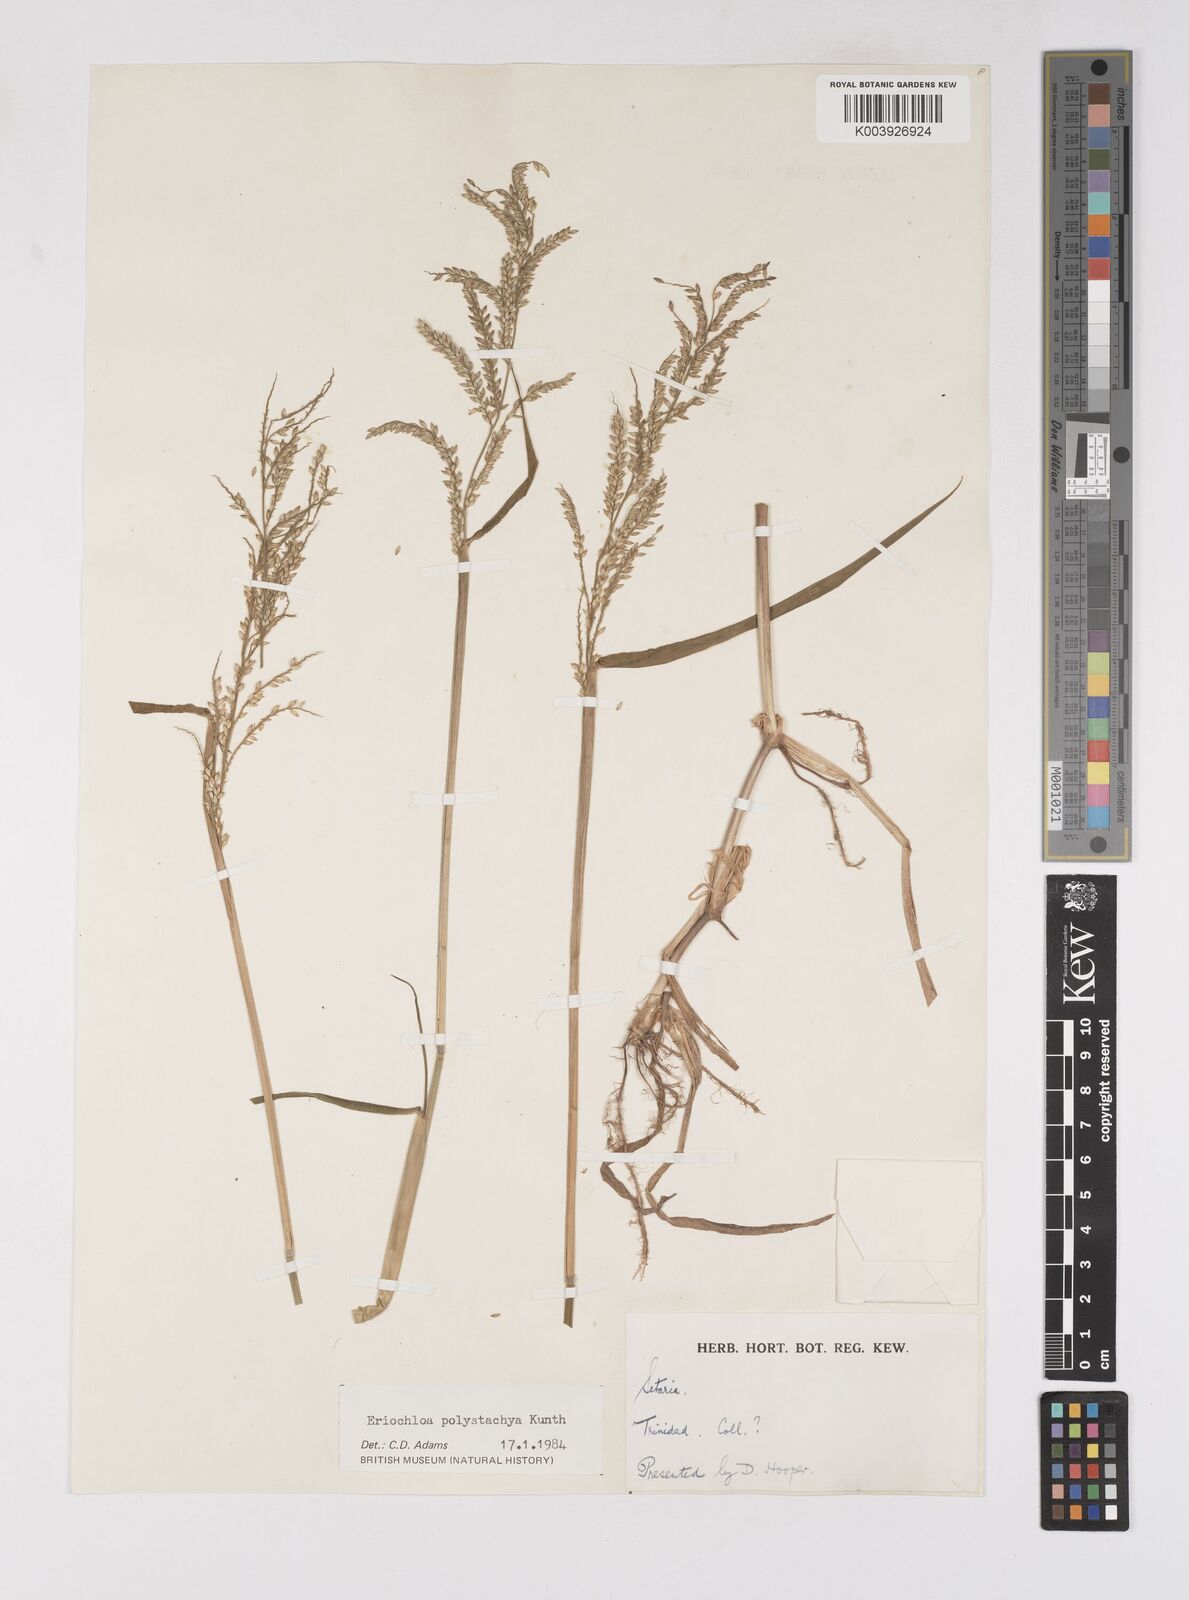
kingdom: Plantae
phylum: Tracheophyta
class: Liliopsida
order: Poales
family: Poaceae
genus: Urochloa
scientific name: Urochloa polystachya
